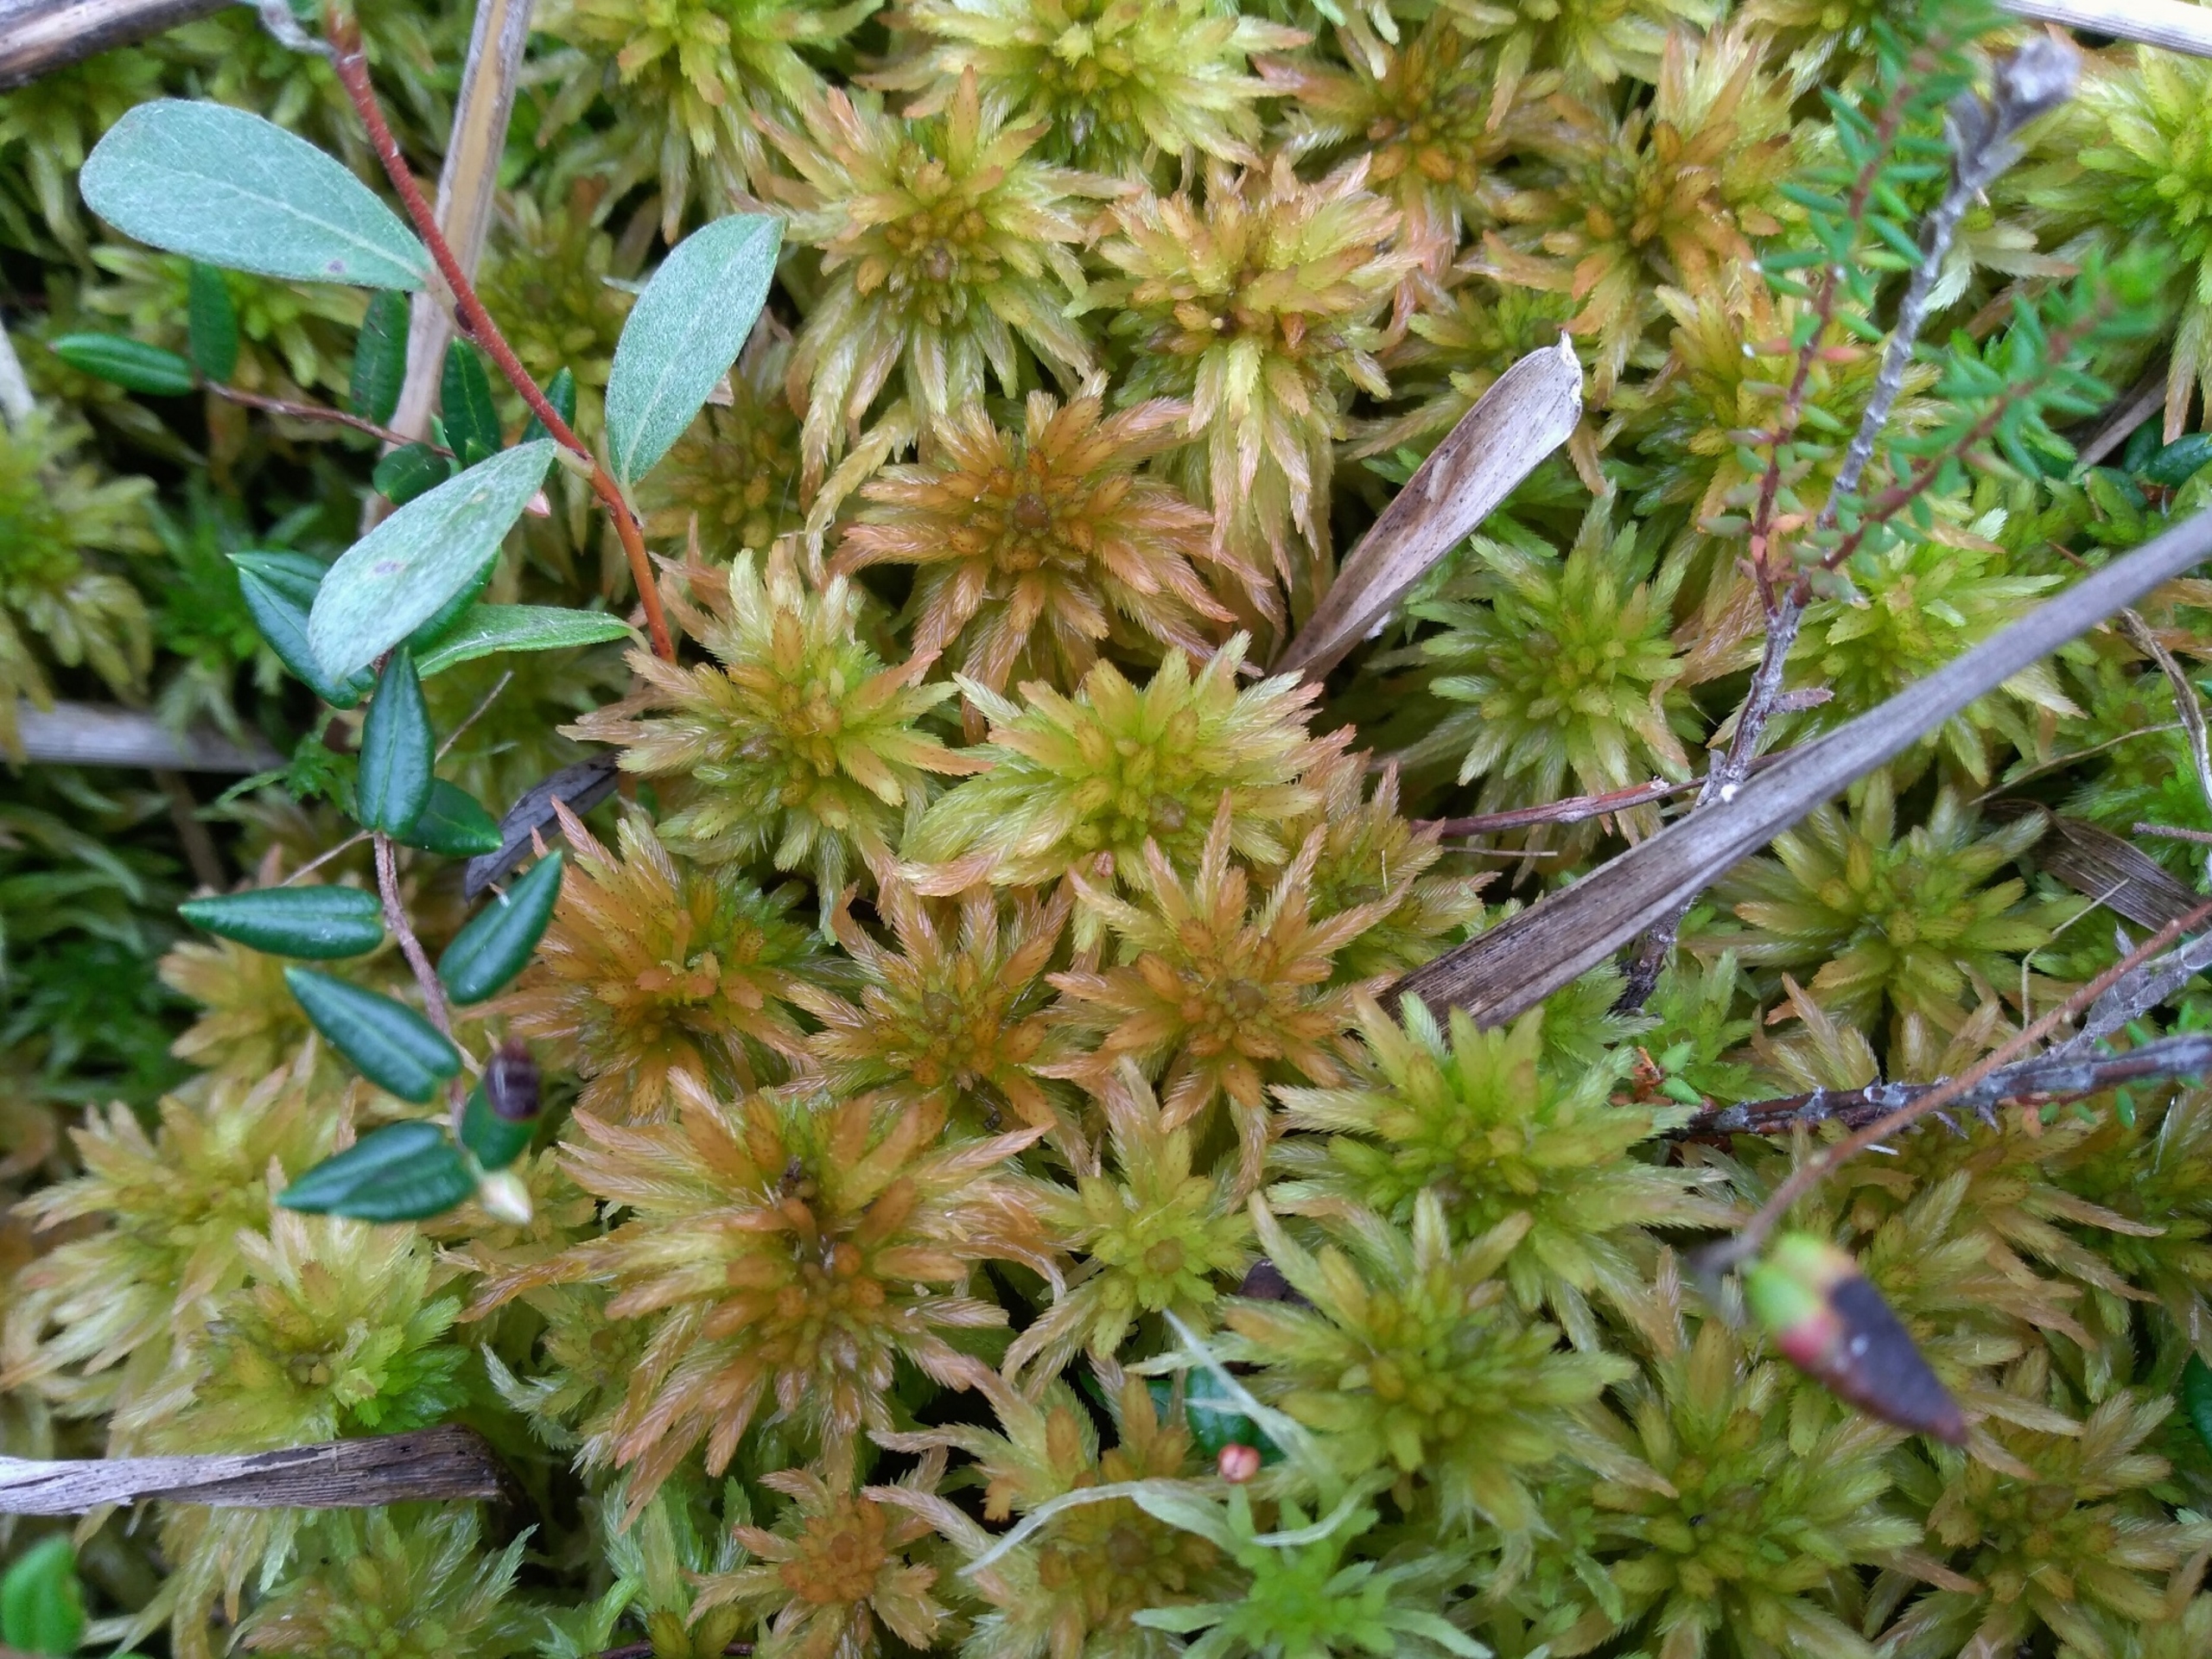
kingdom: Plantae
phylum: Bryophyta
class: Sphagnopsida
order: Sphagnales
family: Sphagnaceae
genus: Sphagnum
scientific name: Sphagnum lindbergii
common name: Glinsende tørvemos
